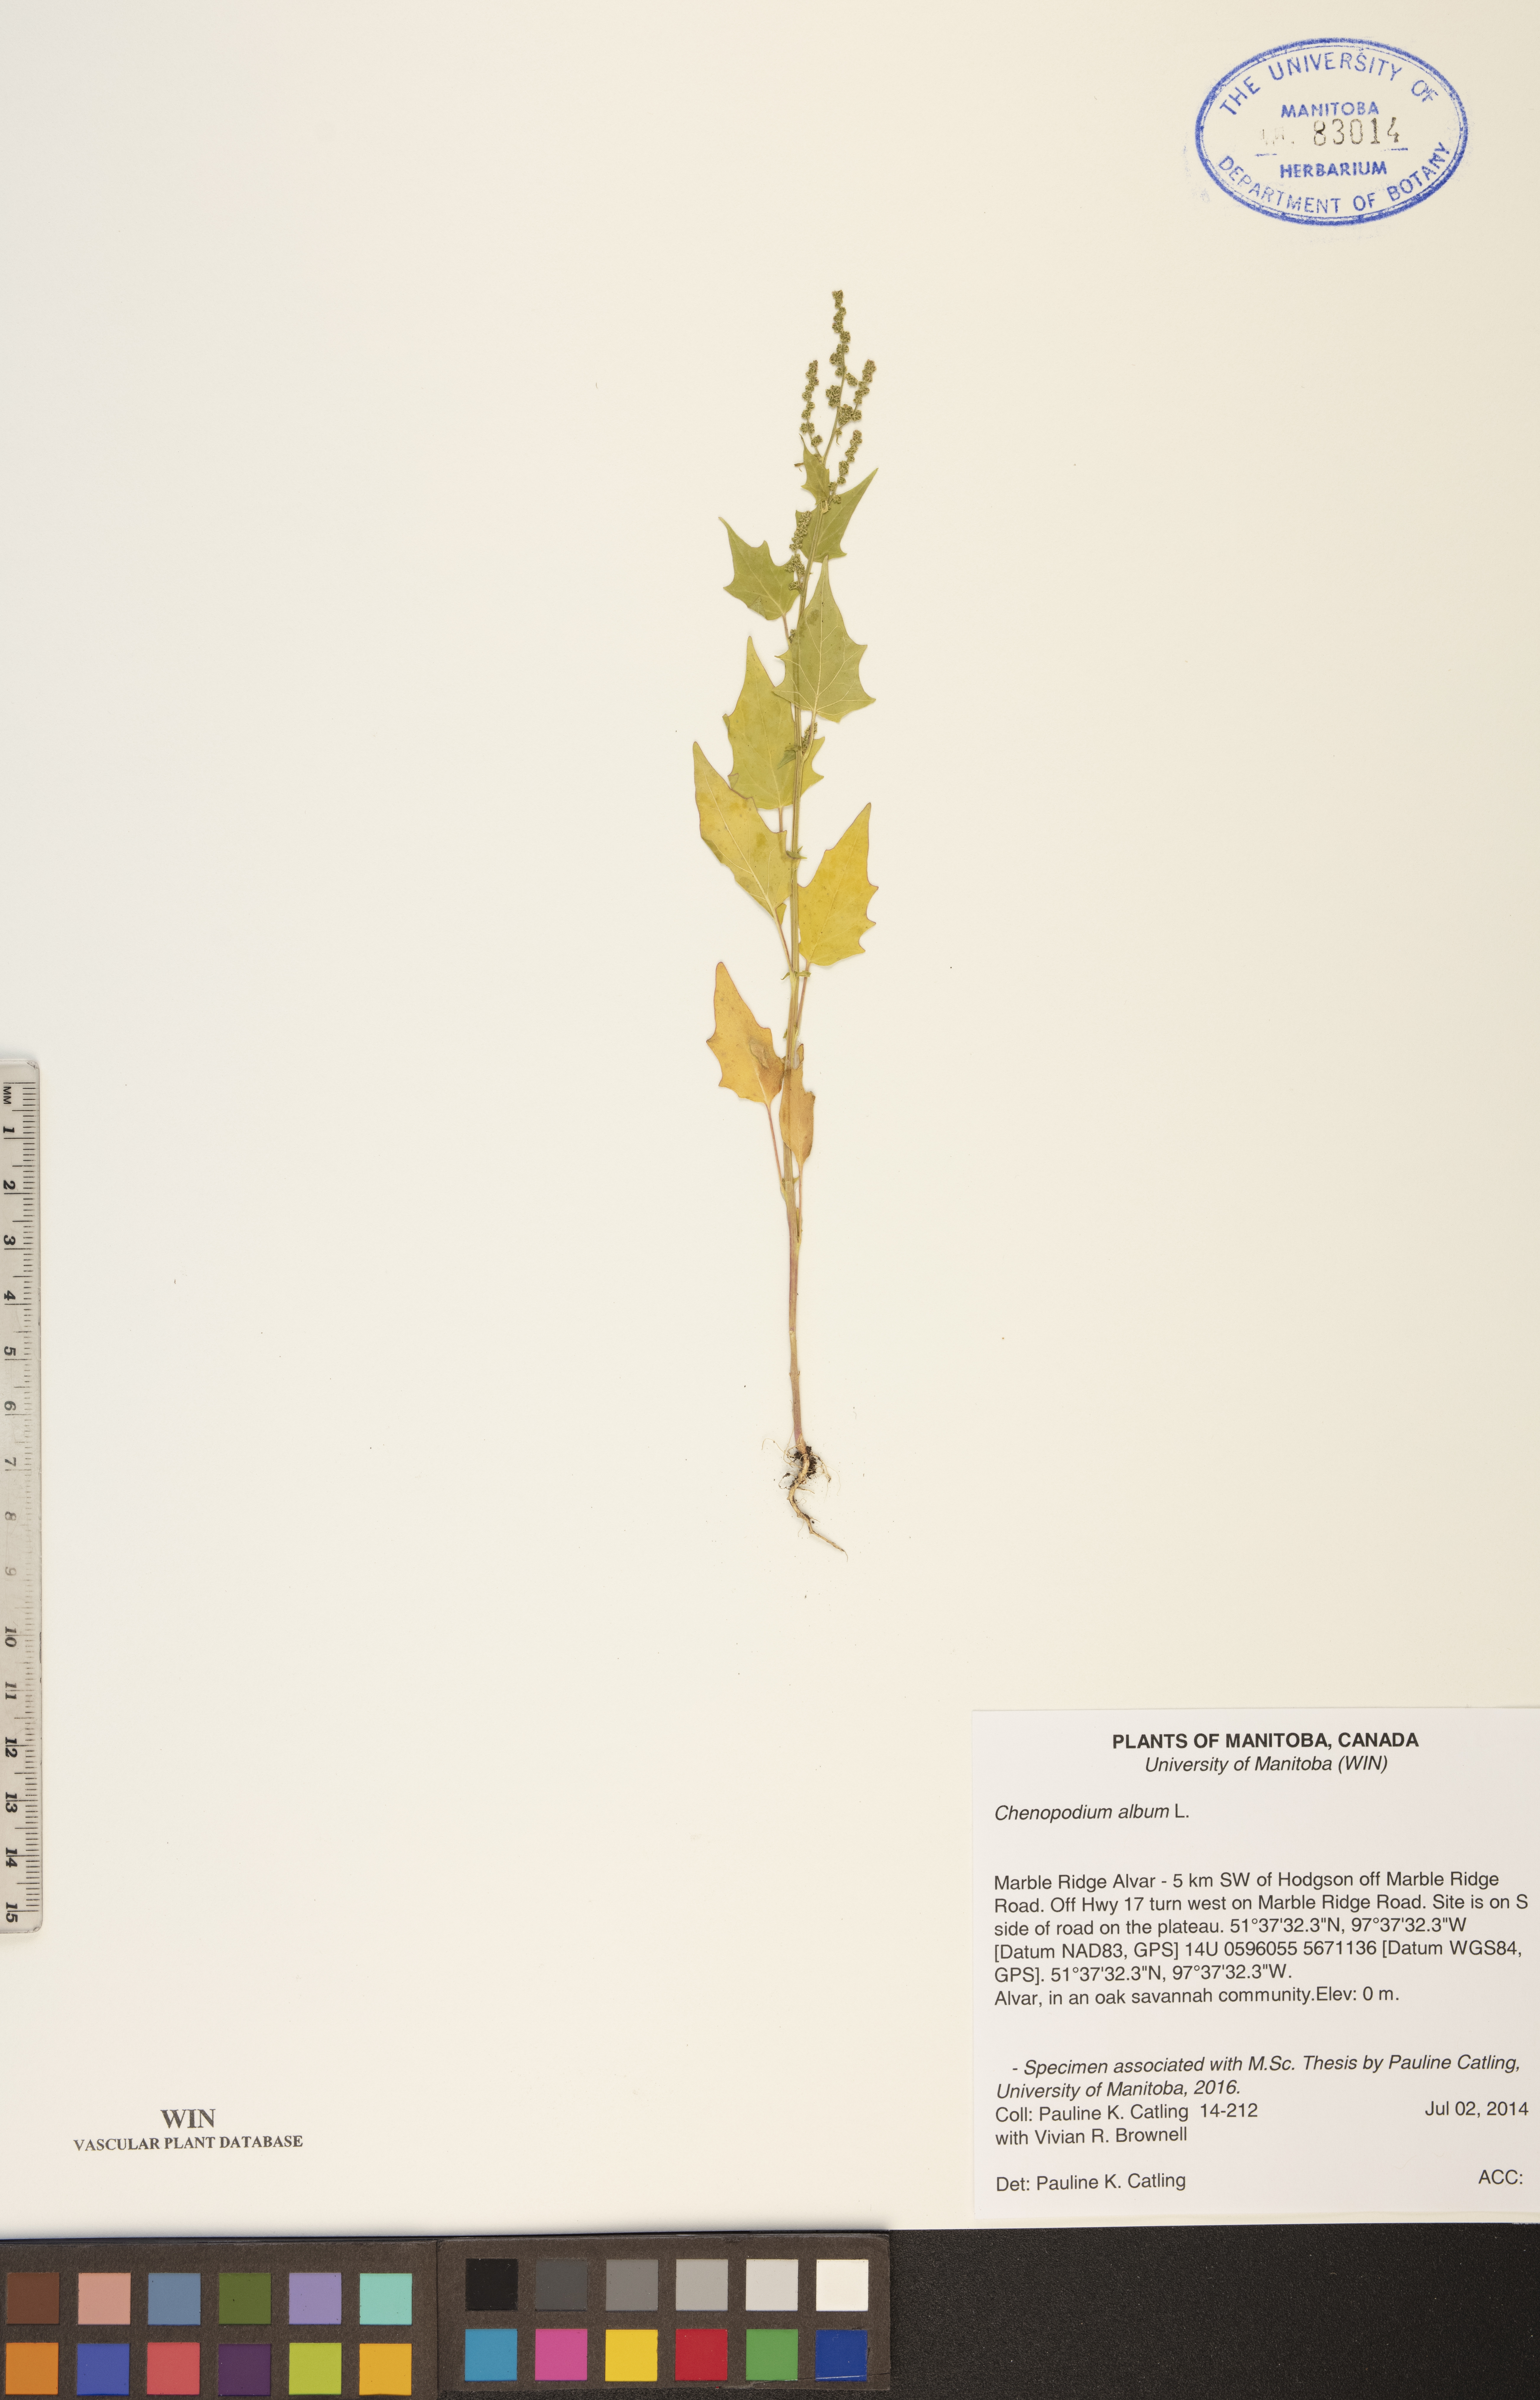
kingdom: Plantae
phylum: Tracheophyta
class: Magnoliopsida
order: Caryophyllales
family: Amaranthaceae
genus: Chenopodium
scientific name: Chenopodium album
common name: Fat-hen
